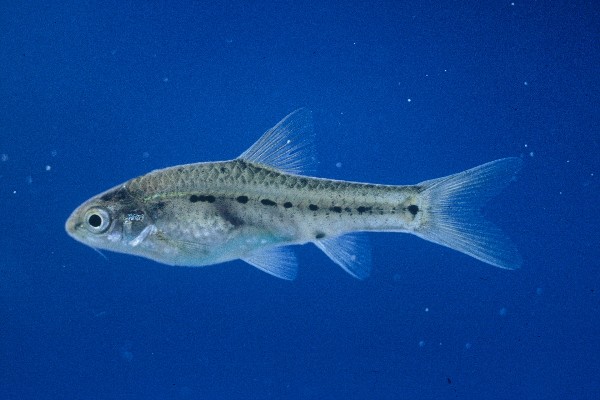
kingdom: Animalia
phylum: Chordata
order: Cypriniformes
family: Cyprinidae
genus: Enteromius
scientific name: Enteromius brevipinnis
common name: Shortfin barb
